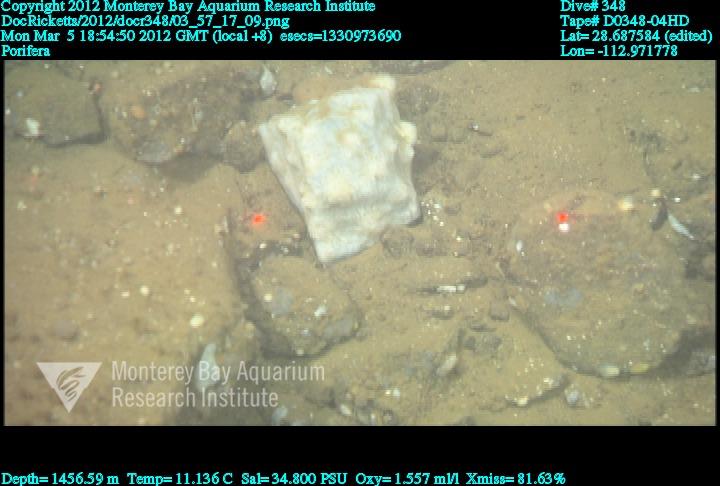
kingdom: Animalia
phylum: Porifera
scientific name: Porifera
